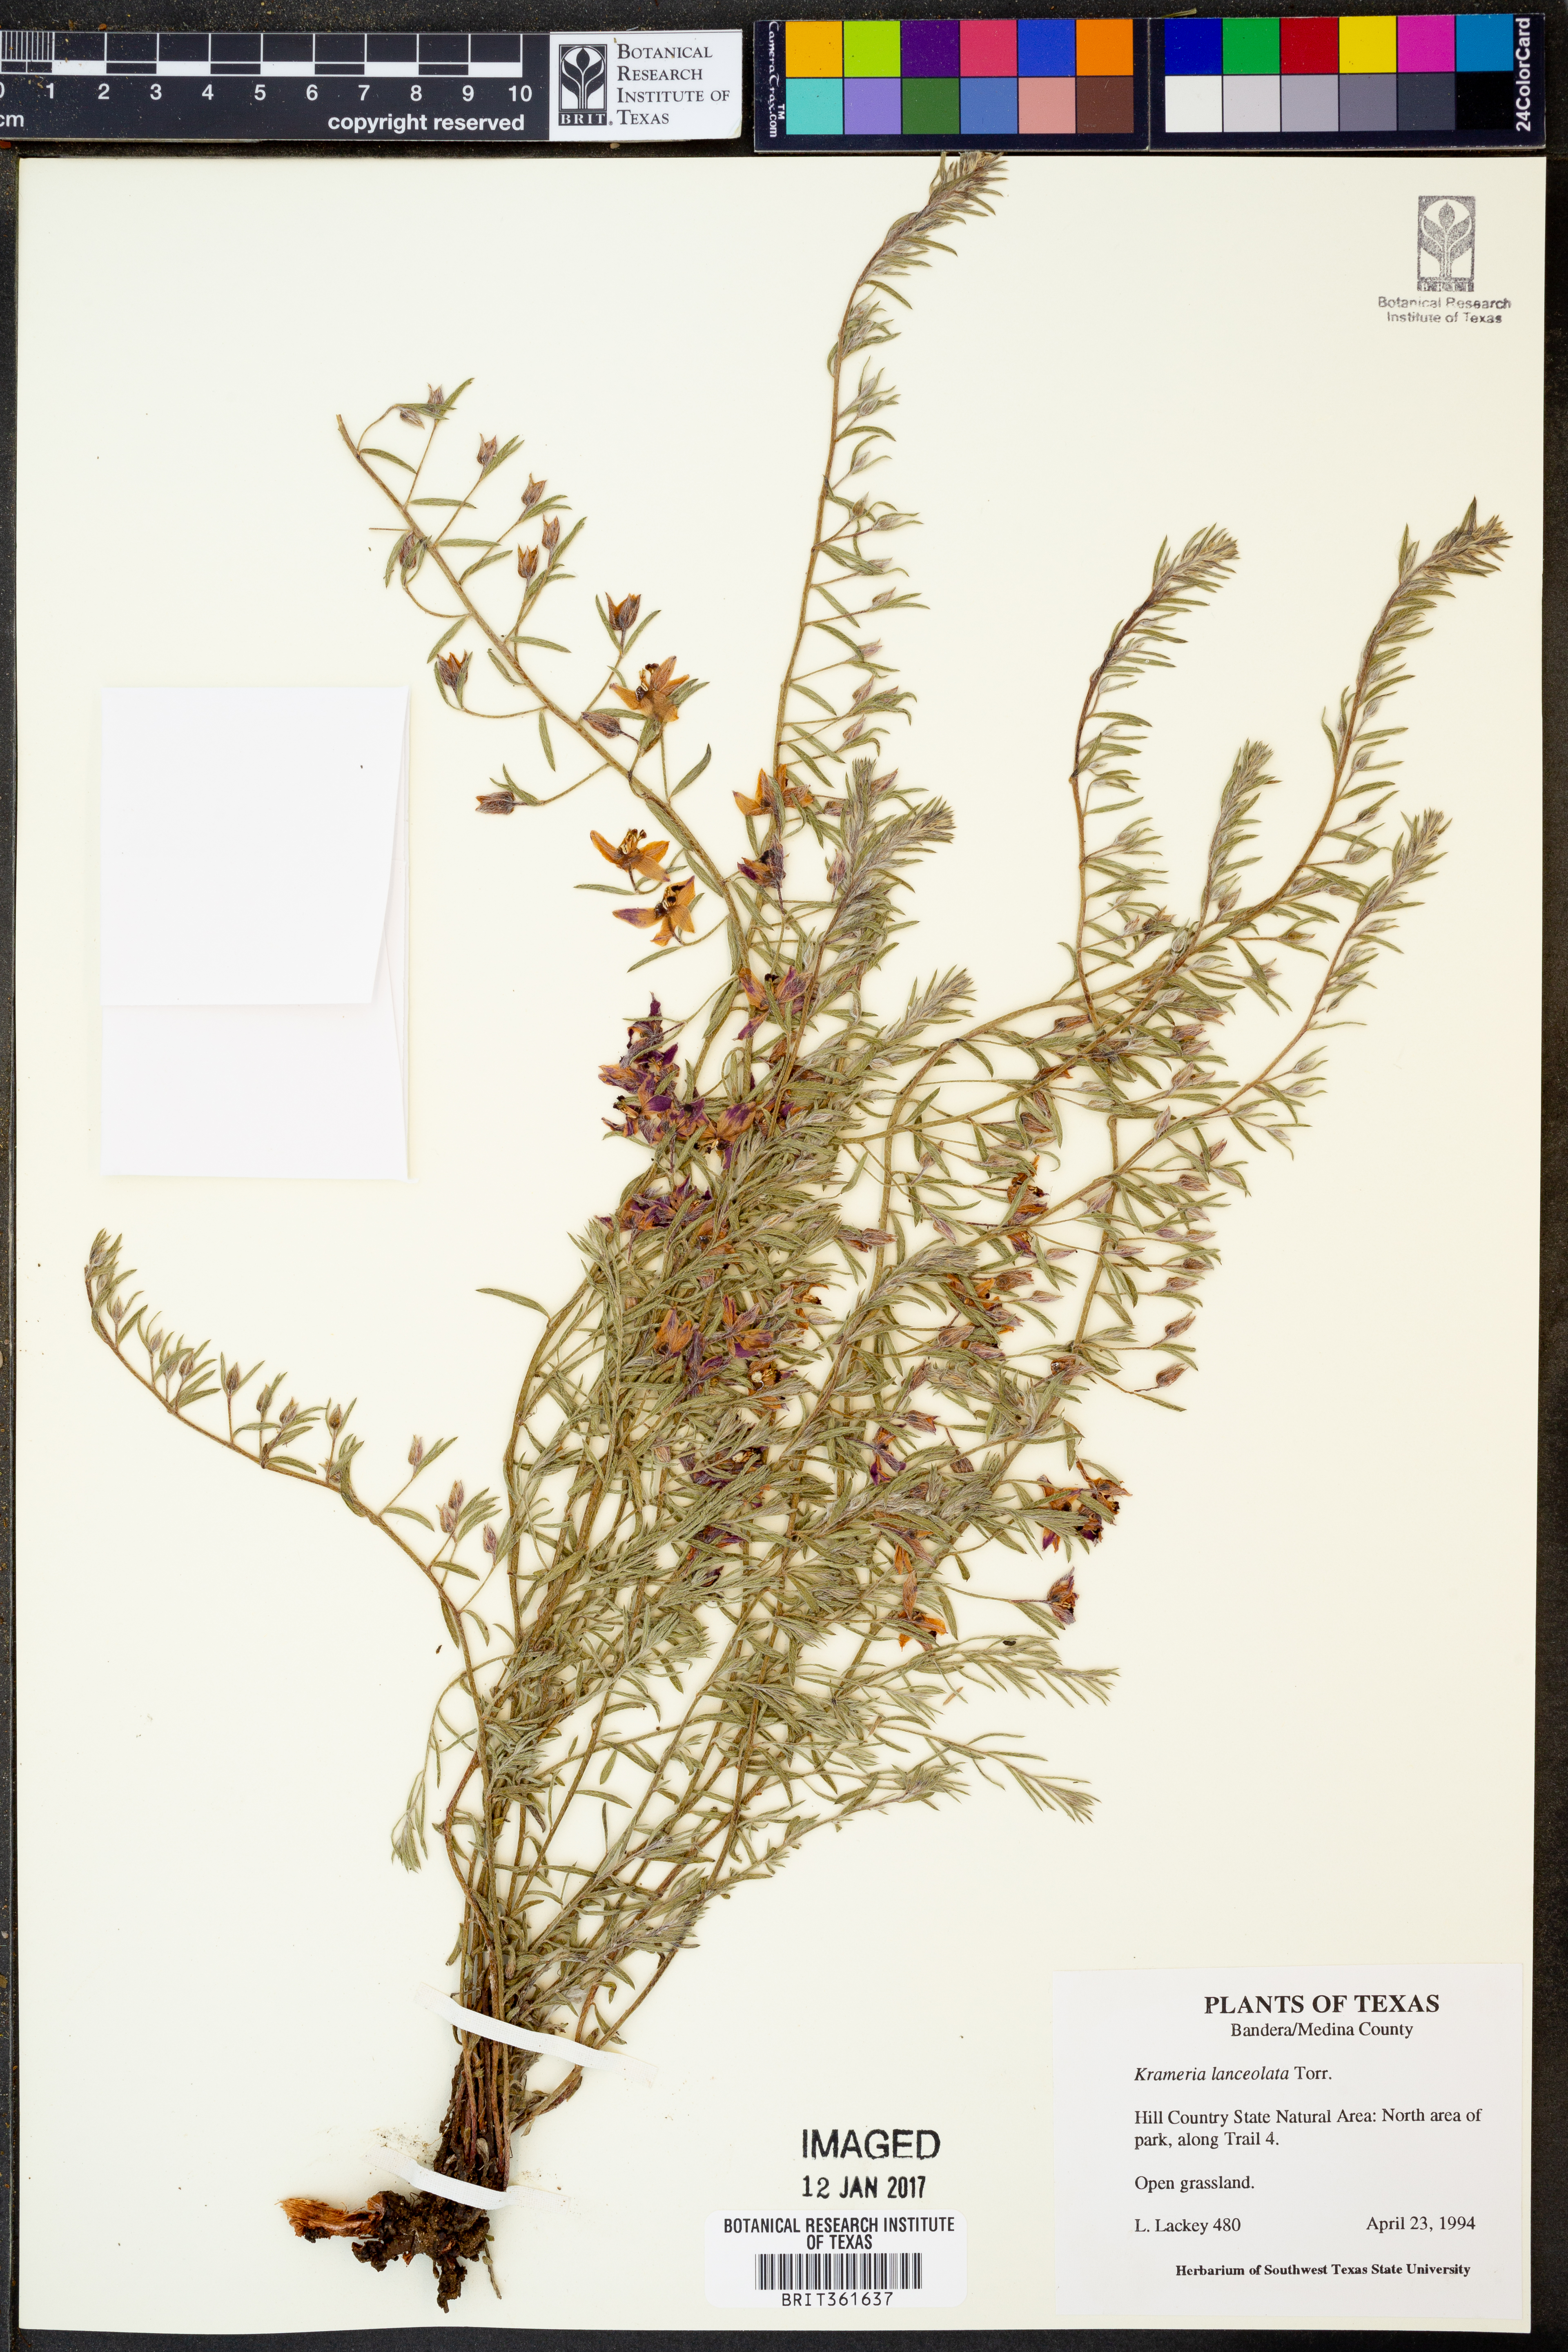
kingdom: Plantae
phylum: Tracheophyta
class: Magnoliopsida
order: Zygophyllales
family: Krameriaceae
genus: Krameria
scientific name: Krameria lanceolata
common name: Ratany
